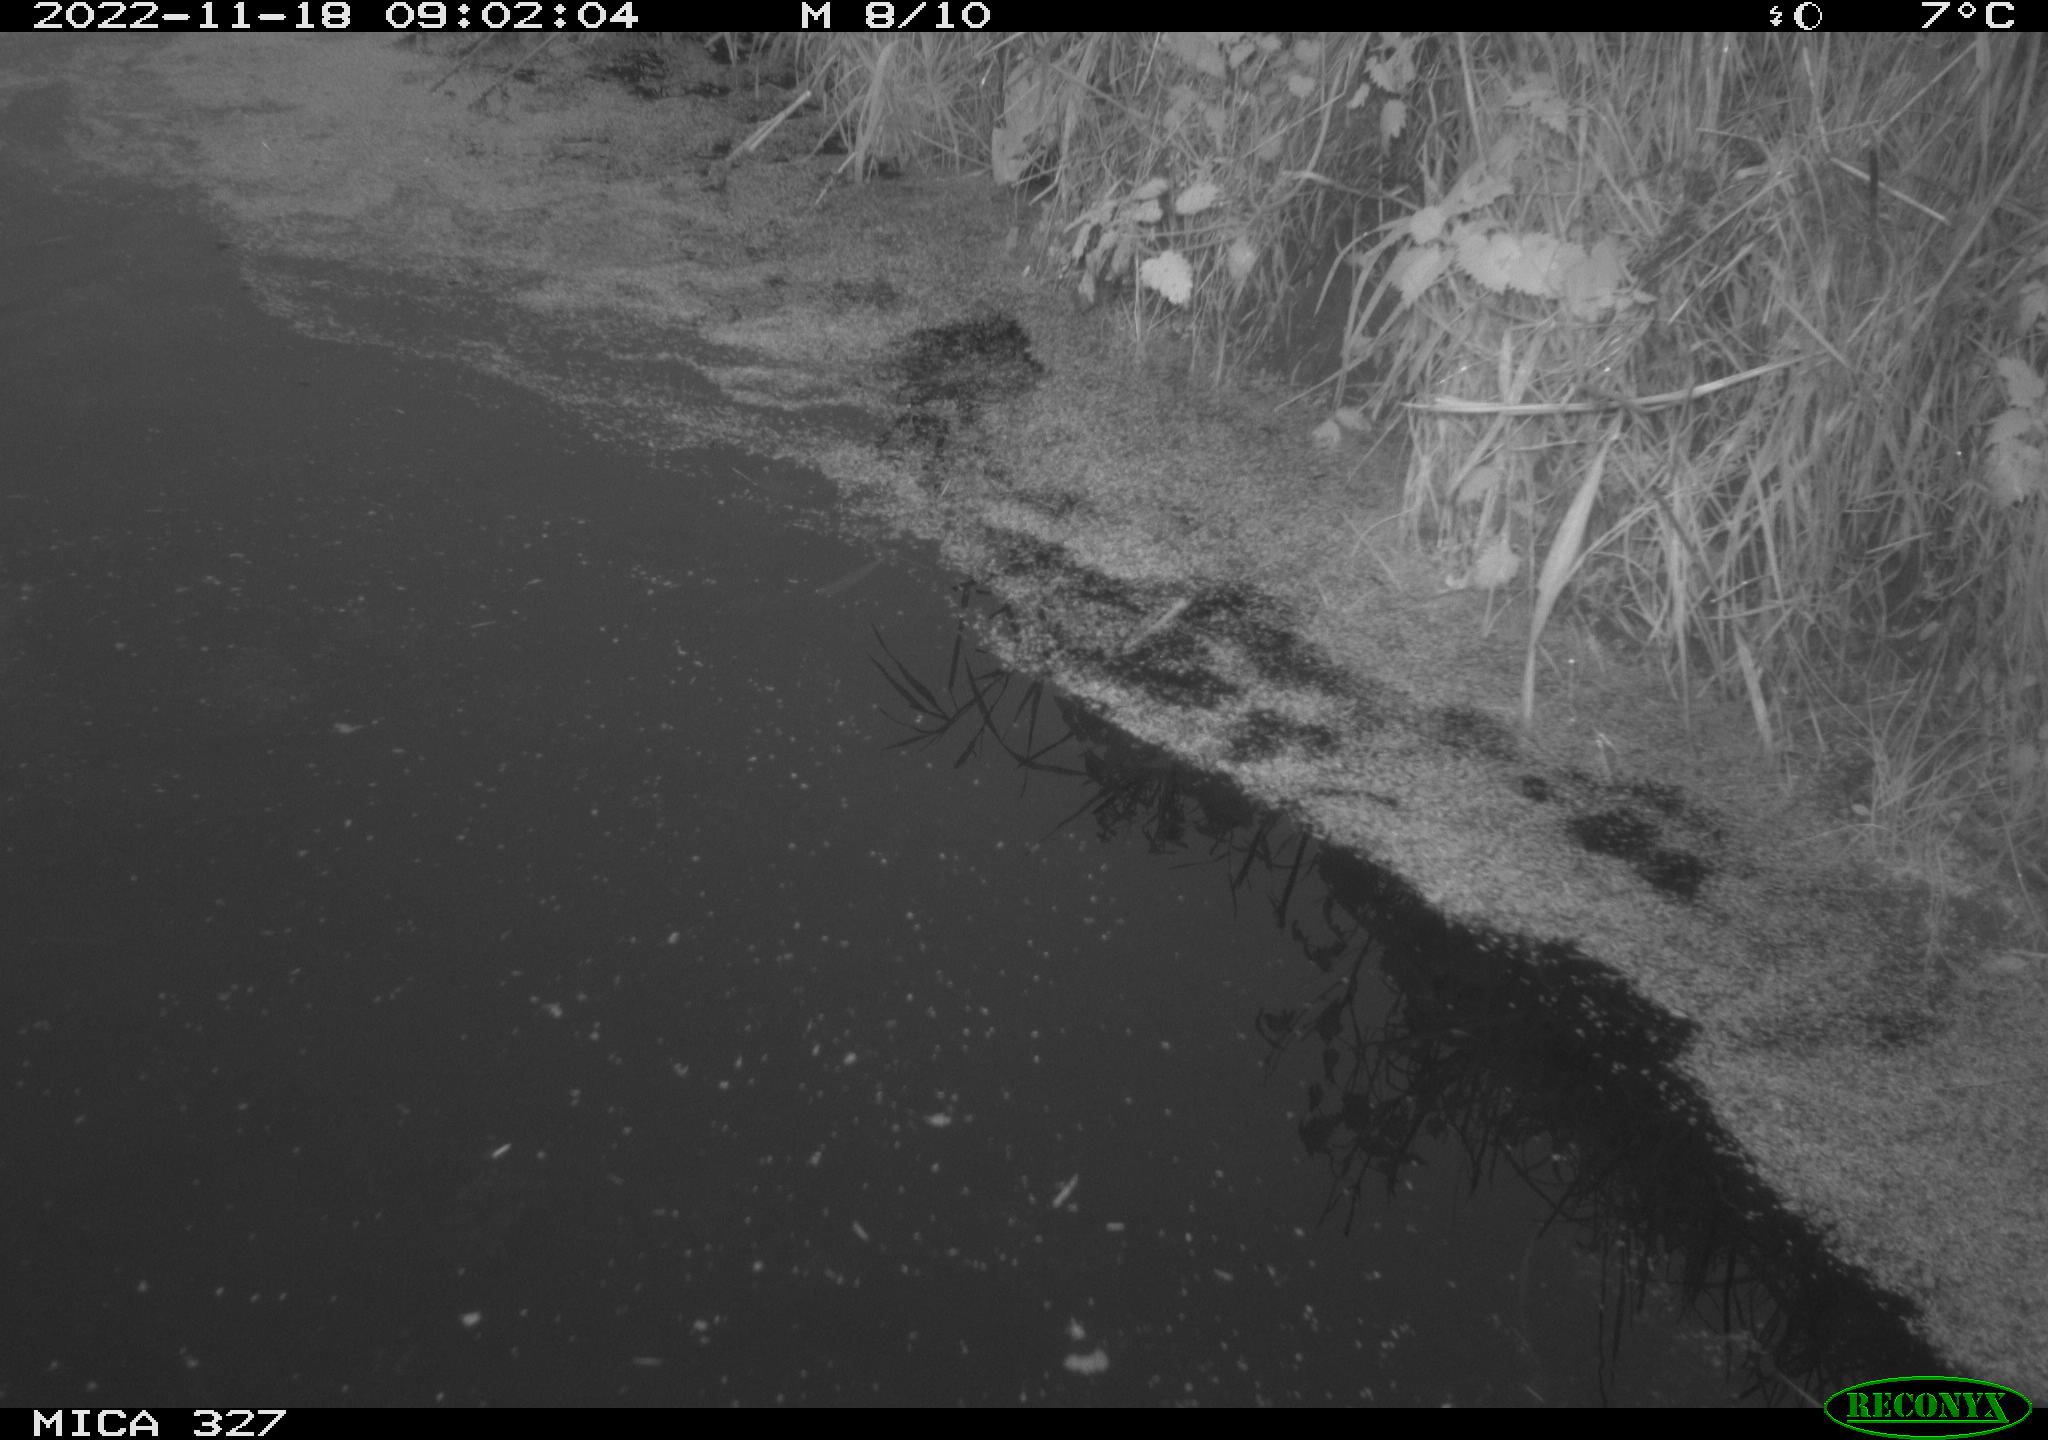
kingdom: Animalia
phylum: Chordata
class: Aves
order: Gruiformes
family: Rallidae
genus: Gallinula
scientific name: Gallinula chloropus
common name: Common moorhen
